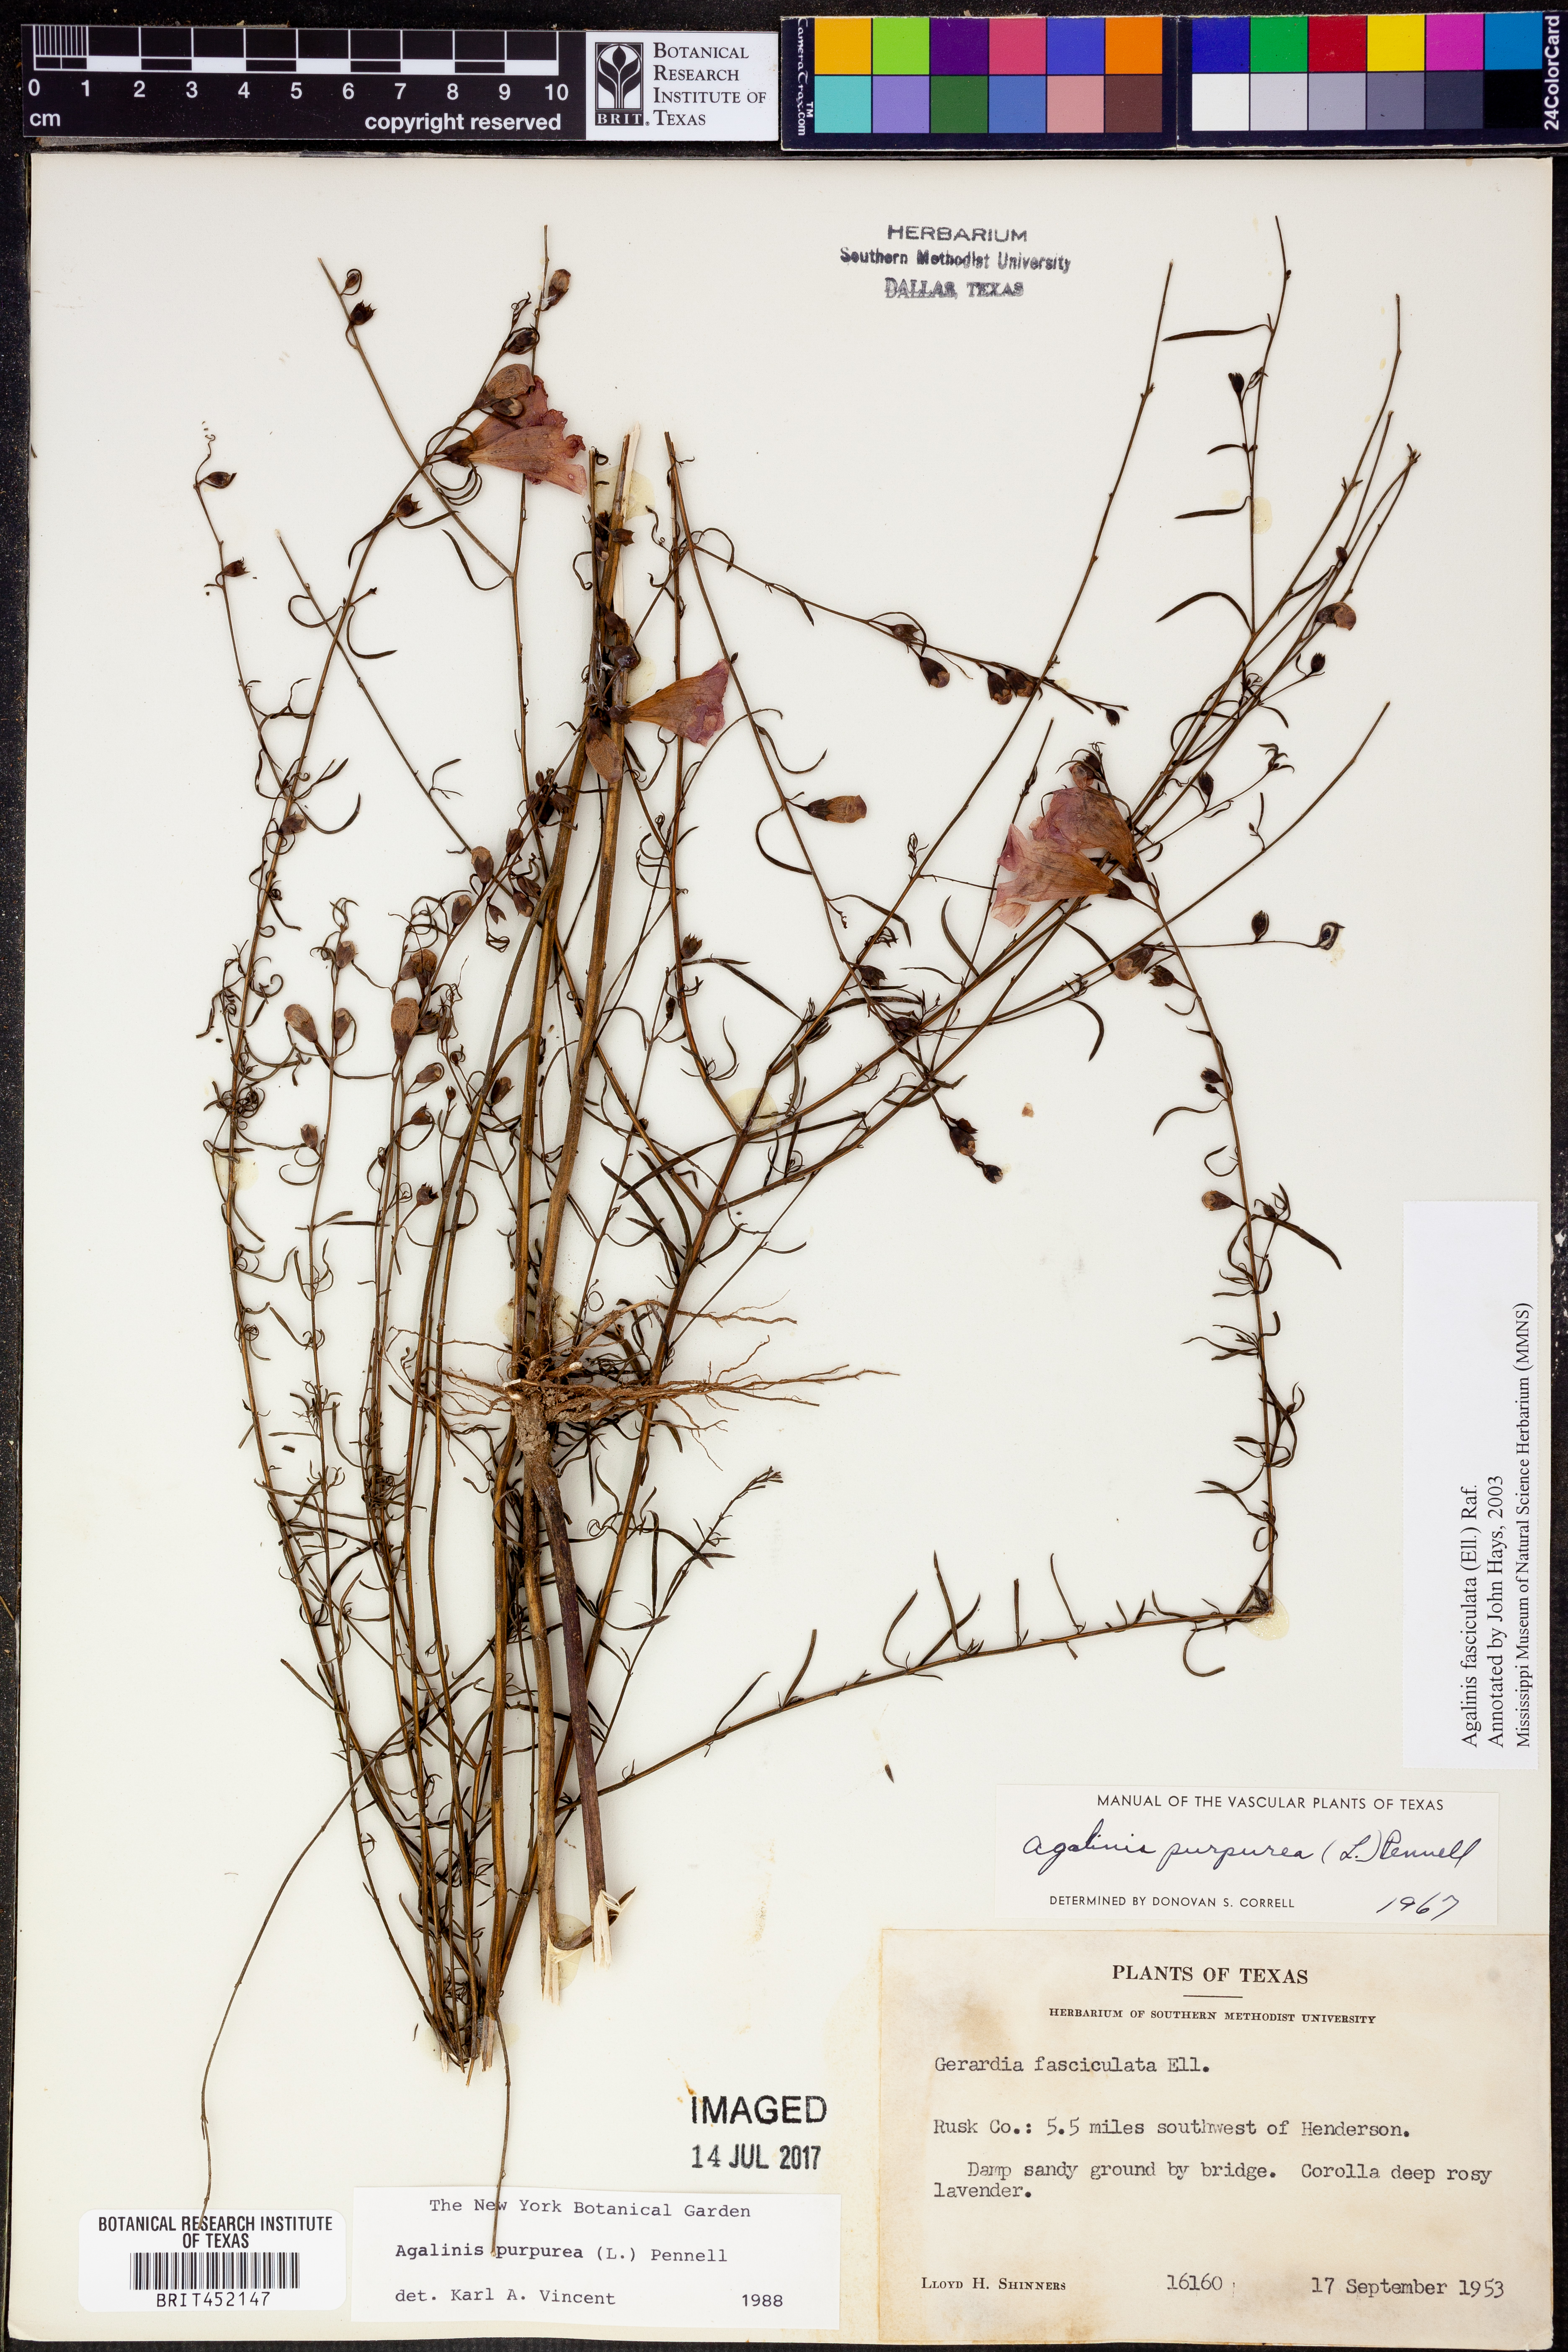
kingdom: Plantae
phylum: Tracheophyta
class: Magnoliopsida
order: Lamiales
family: Orobanchaceae
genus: Agalinis
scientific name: Agalinis purpurea
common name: Purple false foxglove
